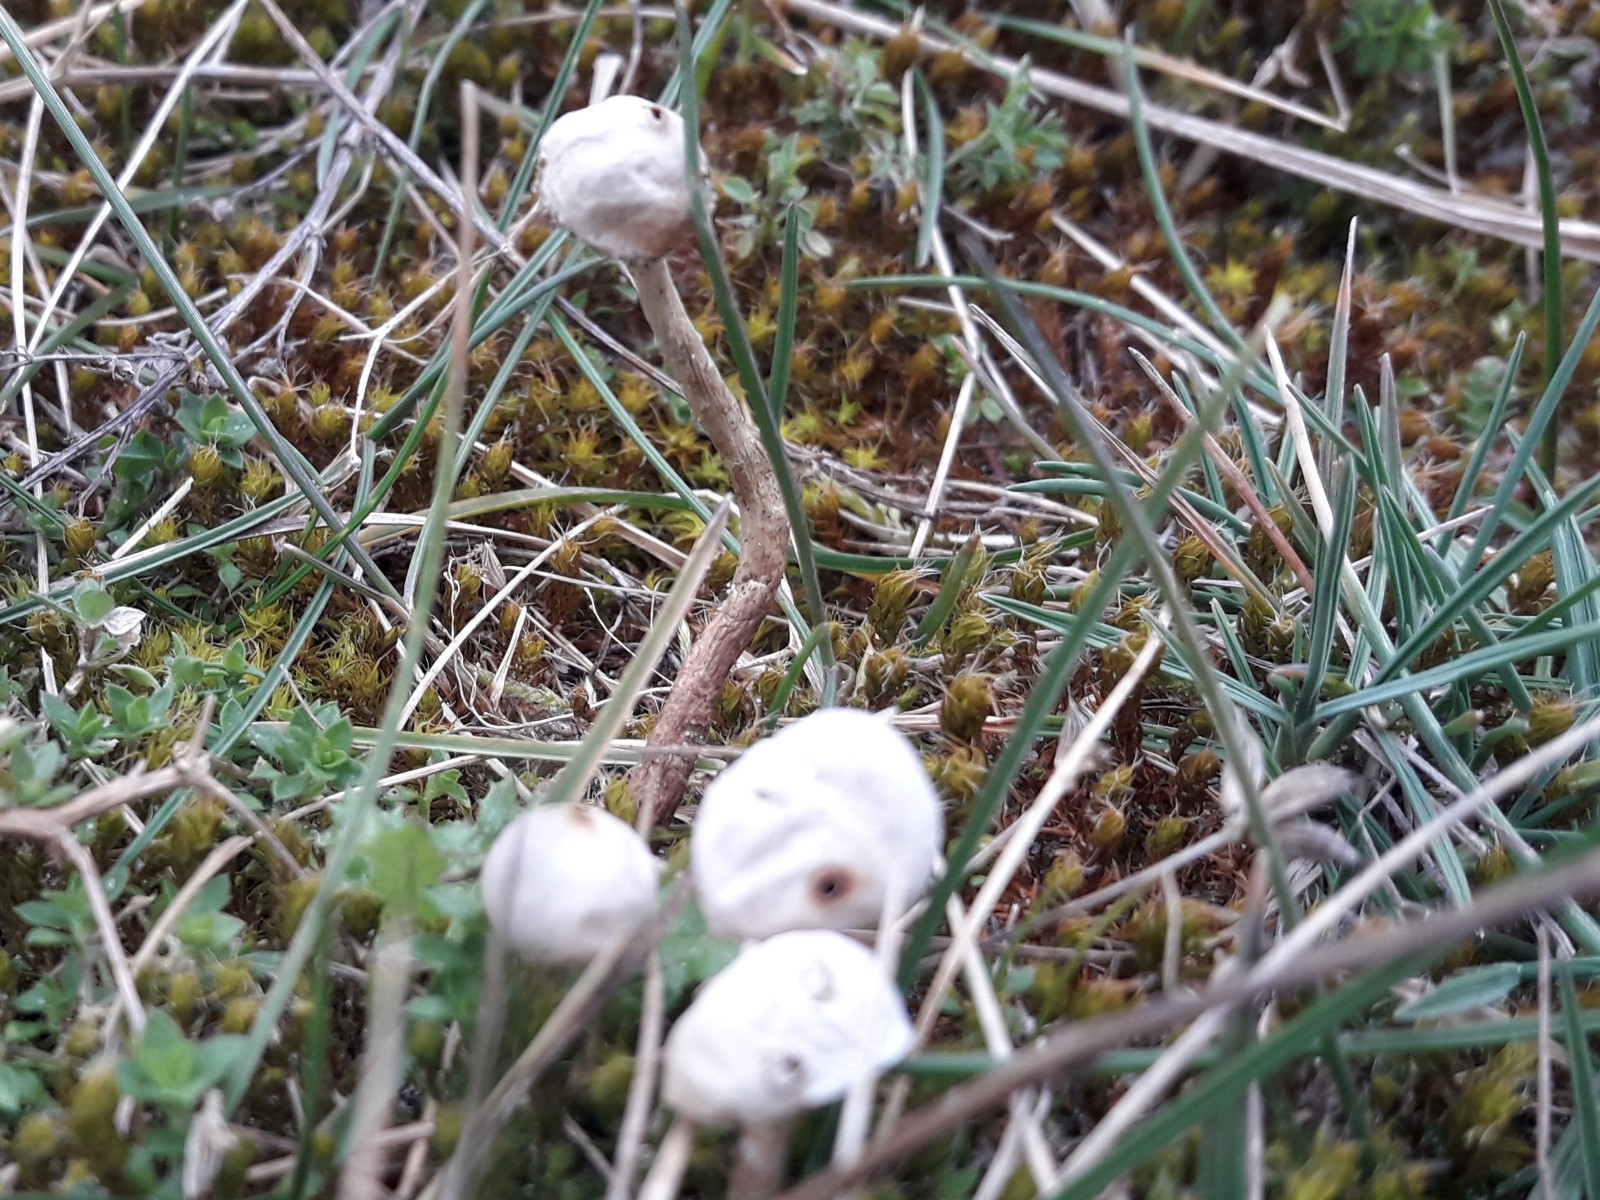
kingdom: Fungi
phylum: Basidiomycota
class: Agaricomycetes
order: Agaricales
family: Agaricaceae
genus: Tulostoma
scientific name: Tulostoma brumale
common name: vinter-stilkbovist
